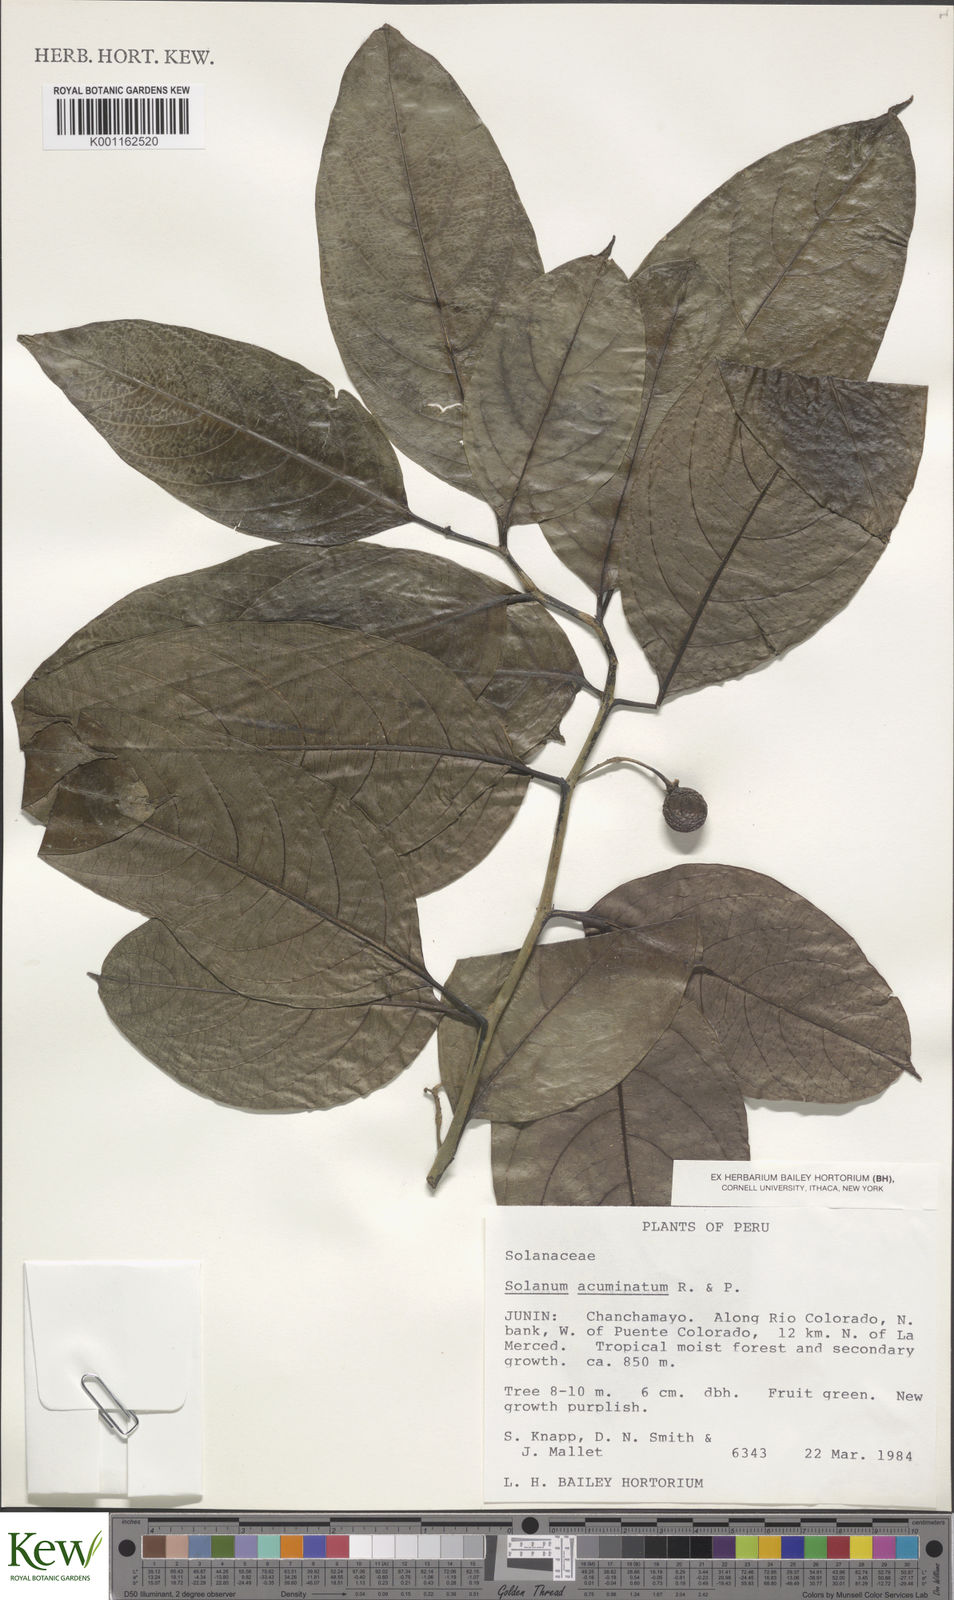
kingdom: Plantae
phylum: Tracheophyta
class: Magnoliopsida
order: Solanales
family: Solanaceae
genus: Solanum
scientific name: Solanum acuminatum
